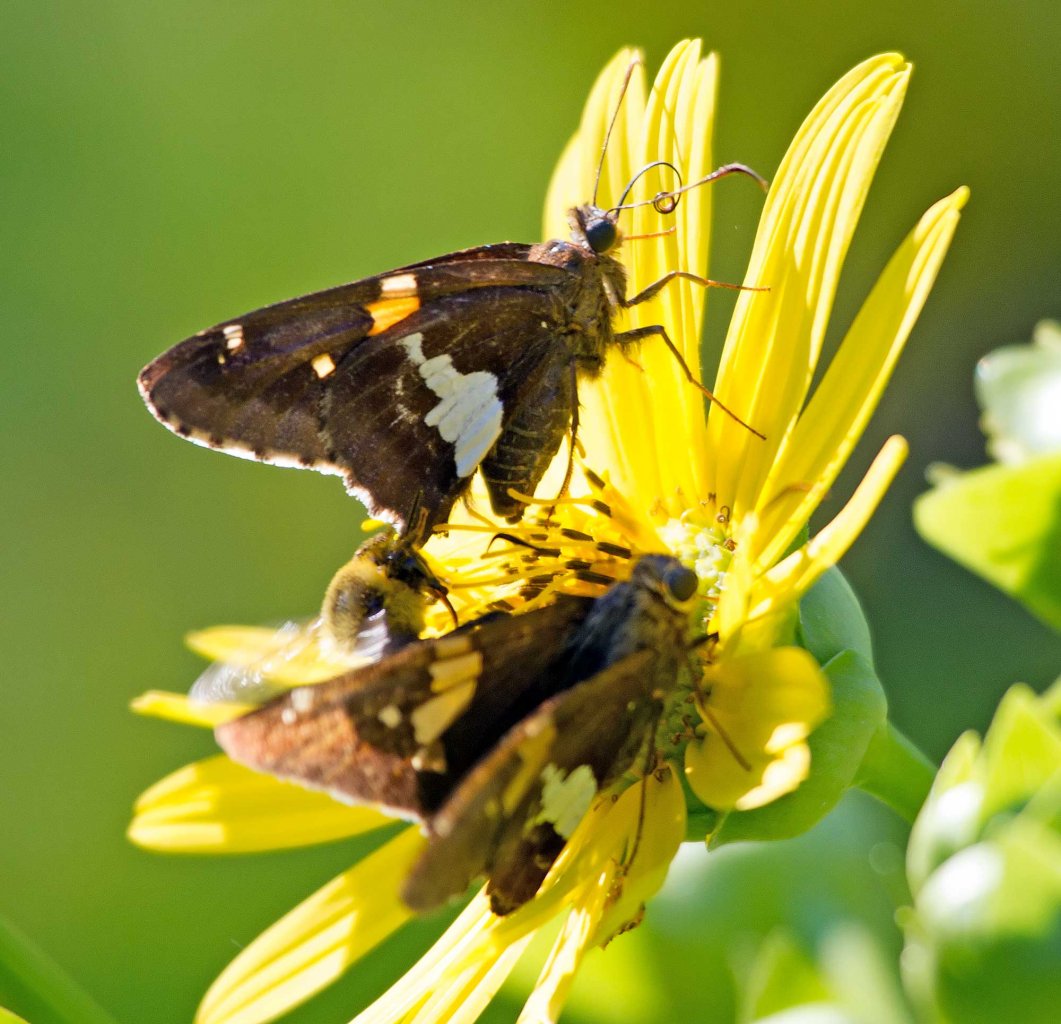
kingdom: Animalia
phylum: Arthropoda
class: Insecta
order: Lepidoptera
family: Hesperiidae
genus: Epargyreus
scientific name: Epargyreus clarus
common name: Silver-spotted Skipper
